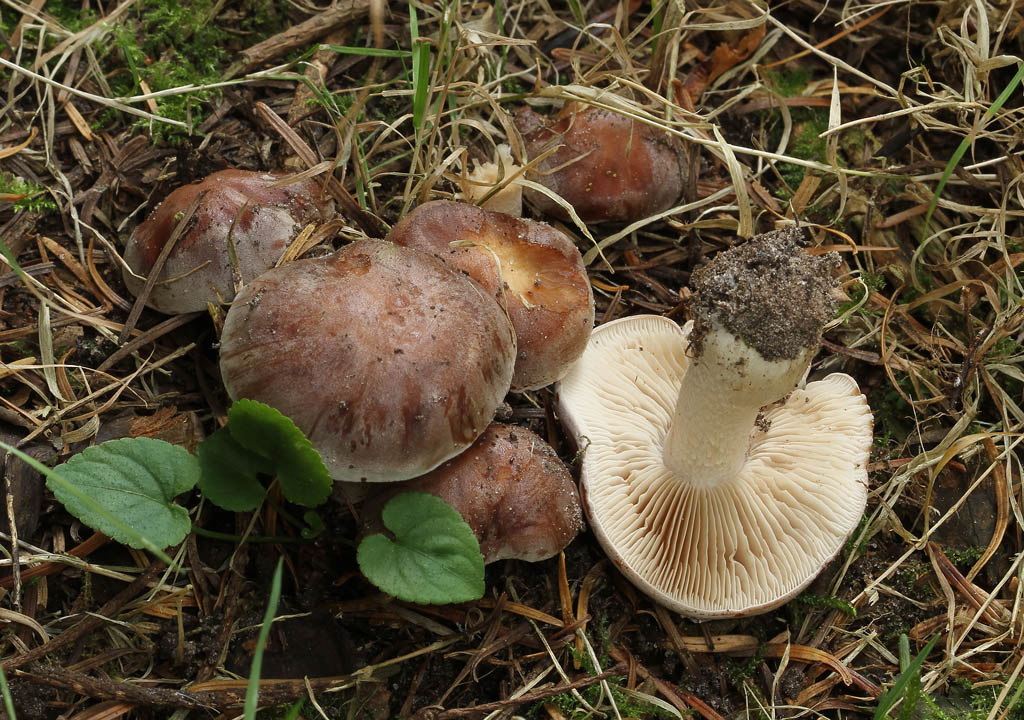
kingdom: Fungi
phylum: Basidiomycota
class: Agaricomycetes
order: Agaricales
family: Hymenogastraceae
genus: Hebeloma
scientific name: Hebeloma theobrominum
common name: rødbrun tåreblad
